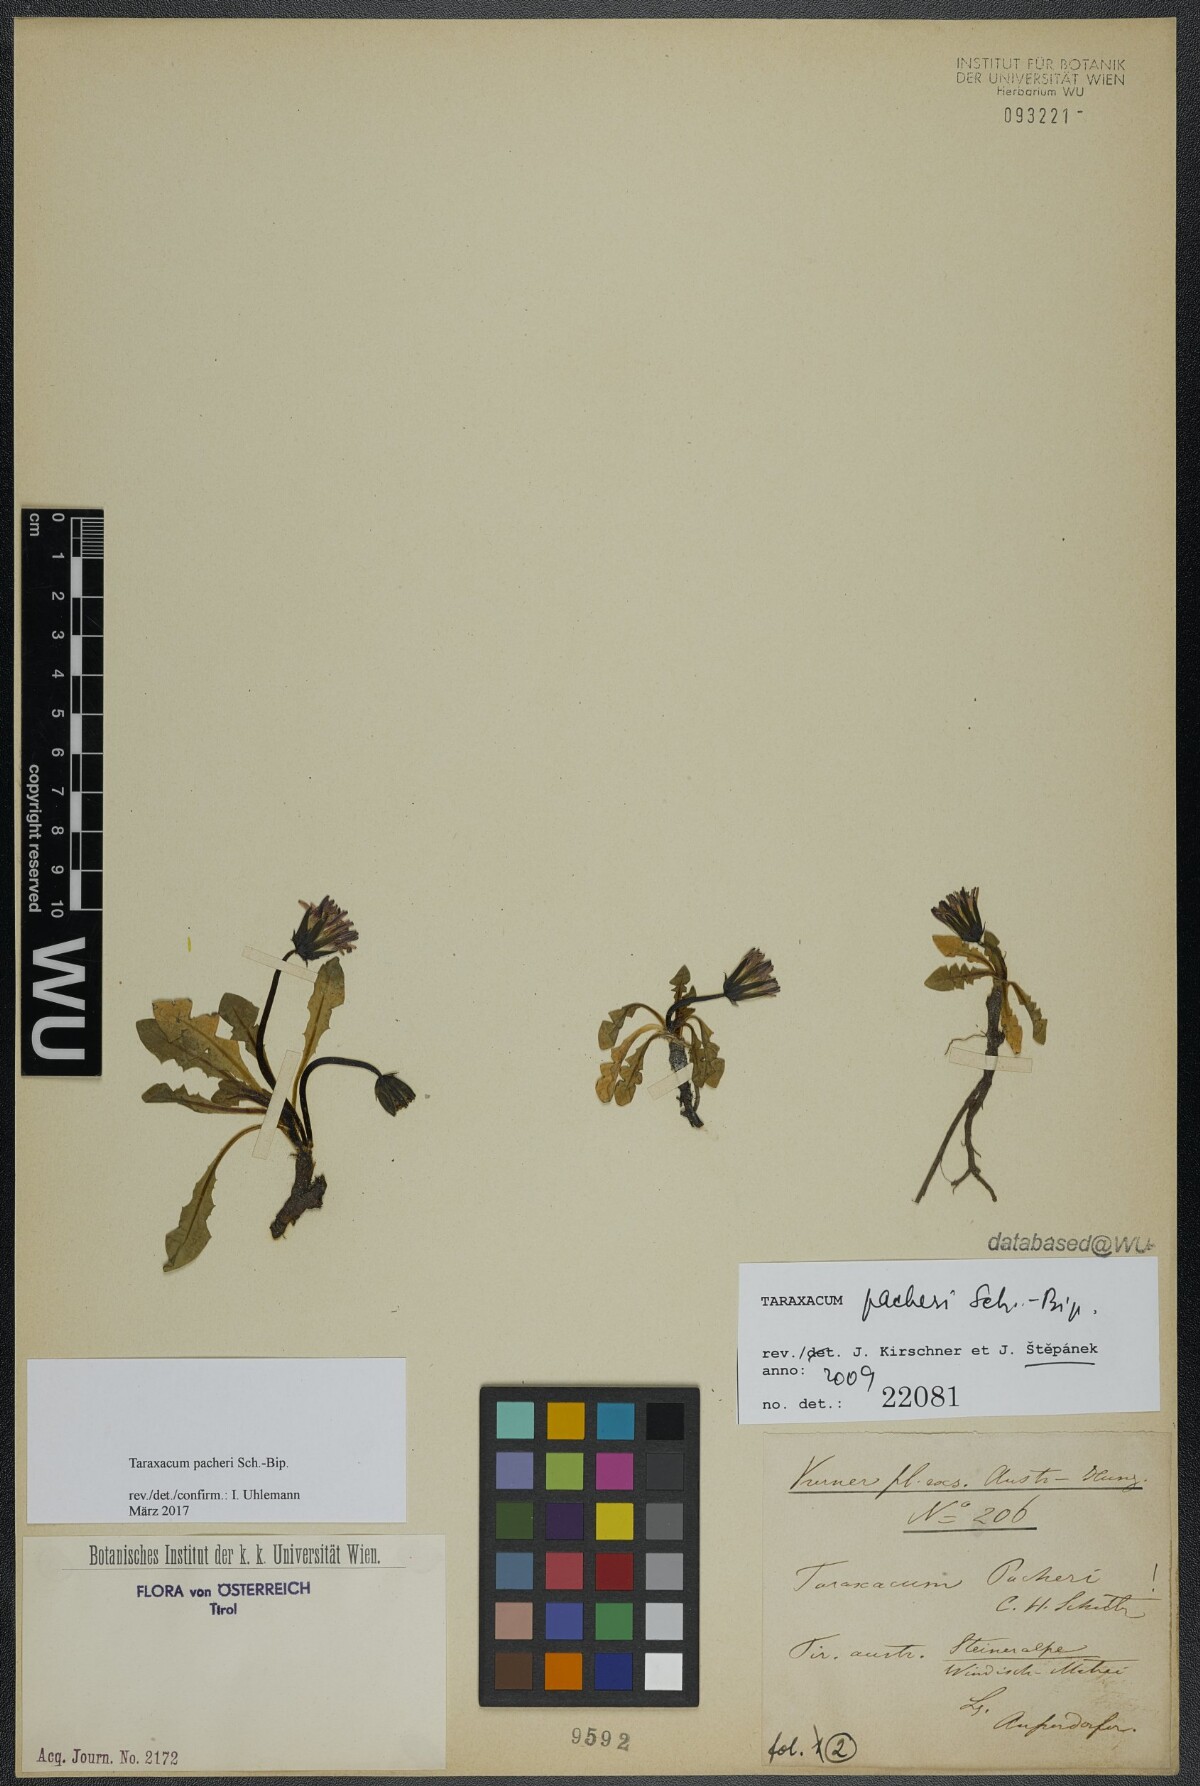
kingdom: Plantae
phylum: Tracheophyta
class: Magnoliopsida
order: Asterales
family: Asteraceae
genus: Taraxacum
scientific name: Taraxacum pacheri
